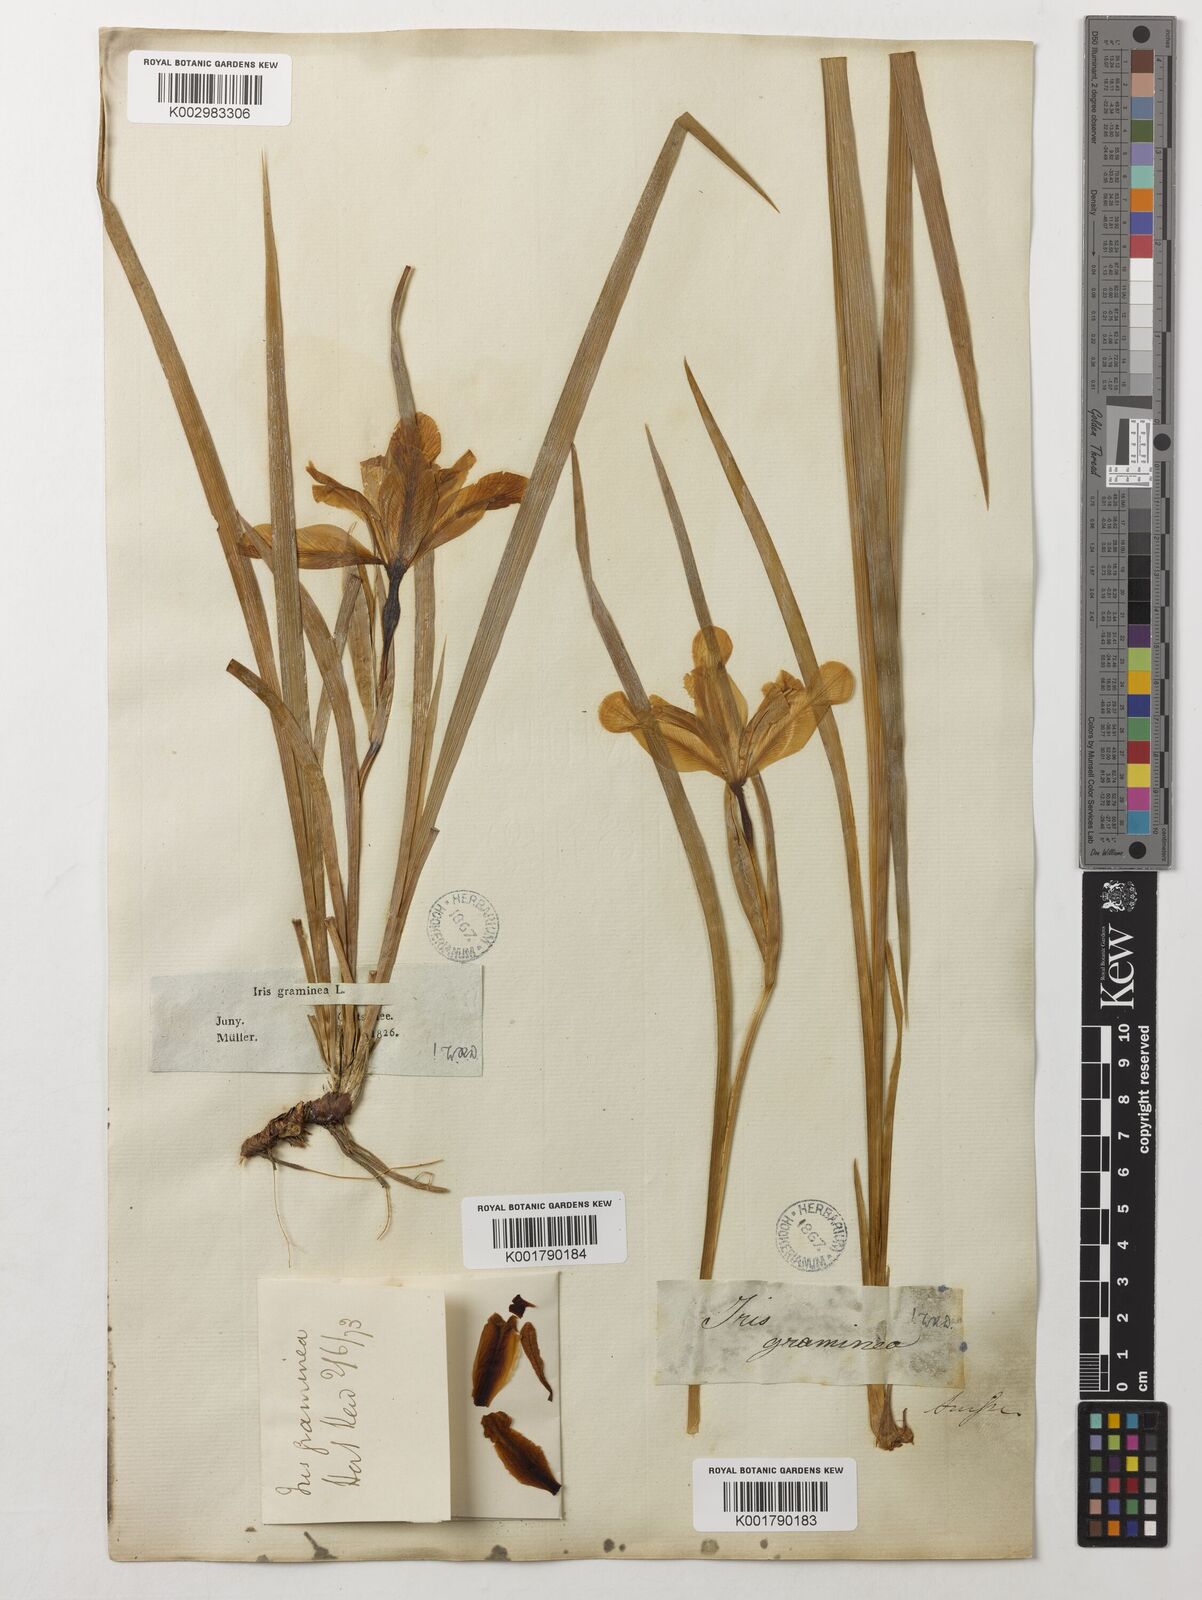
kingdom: Plantae
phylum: Tracheophyta
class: Liliopsida
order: Asparagales
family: Iridaceae
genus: Iris
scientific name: Iris graminea
